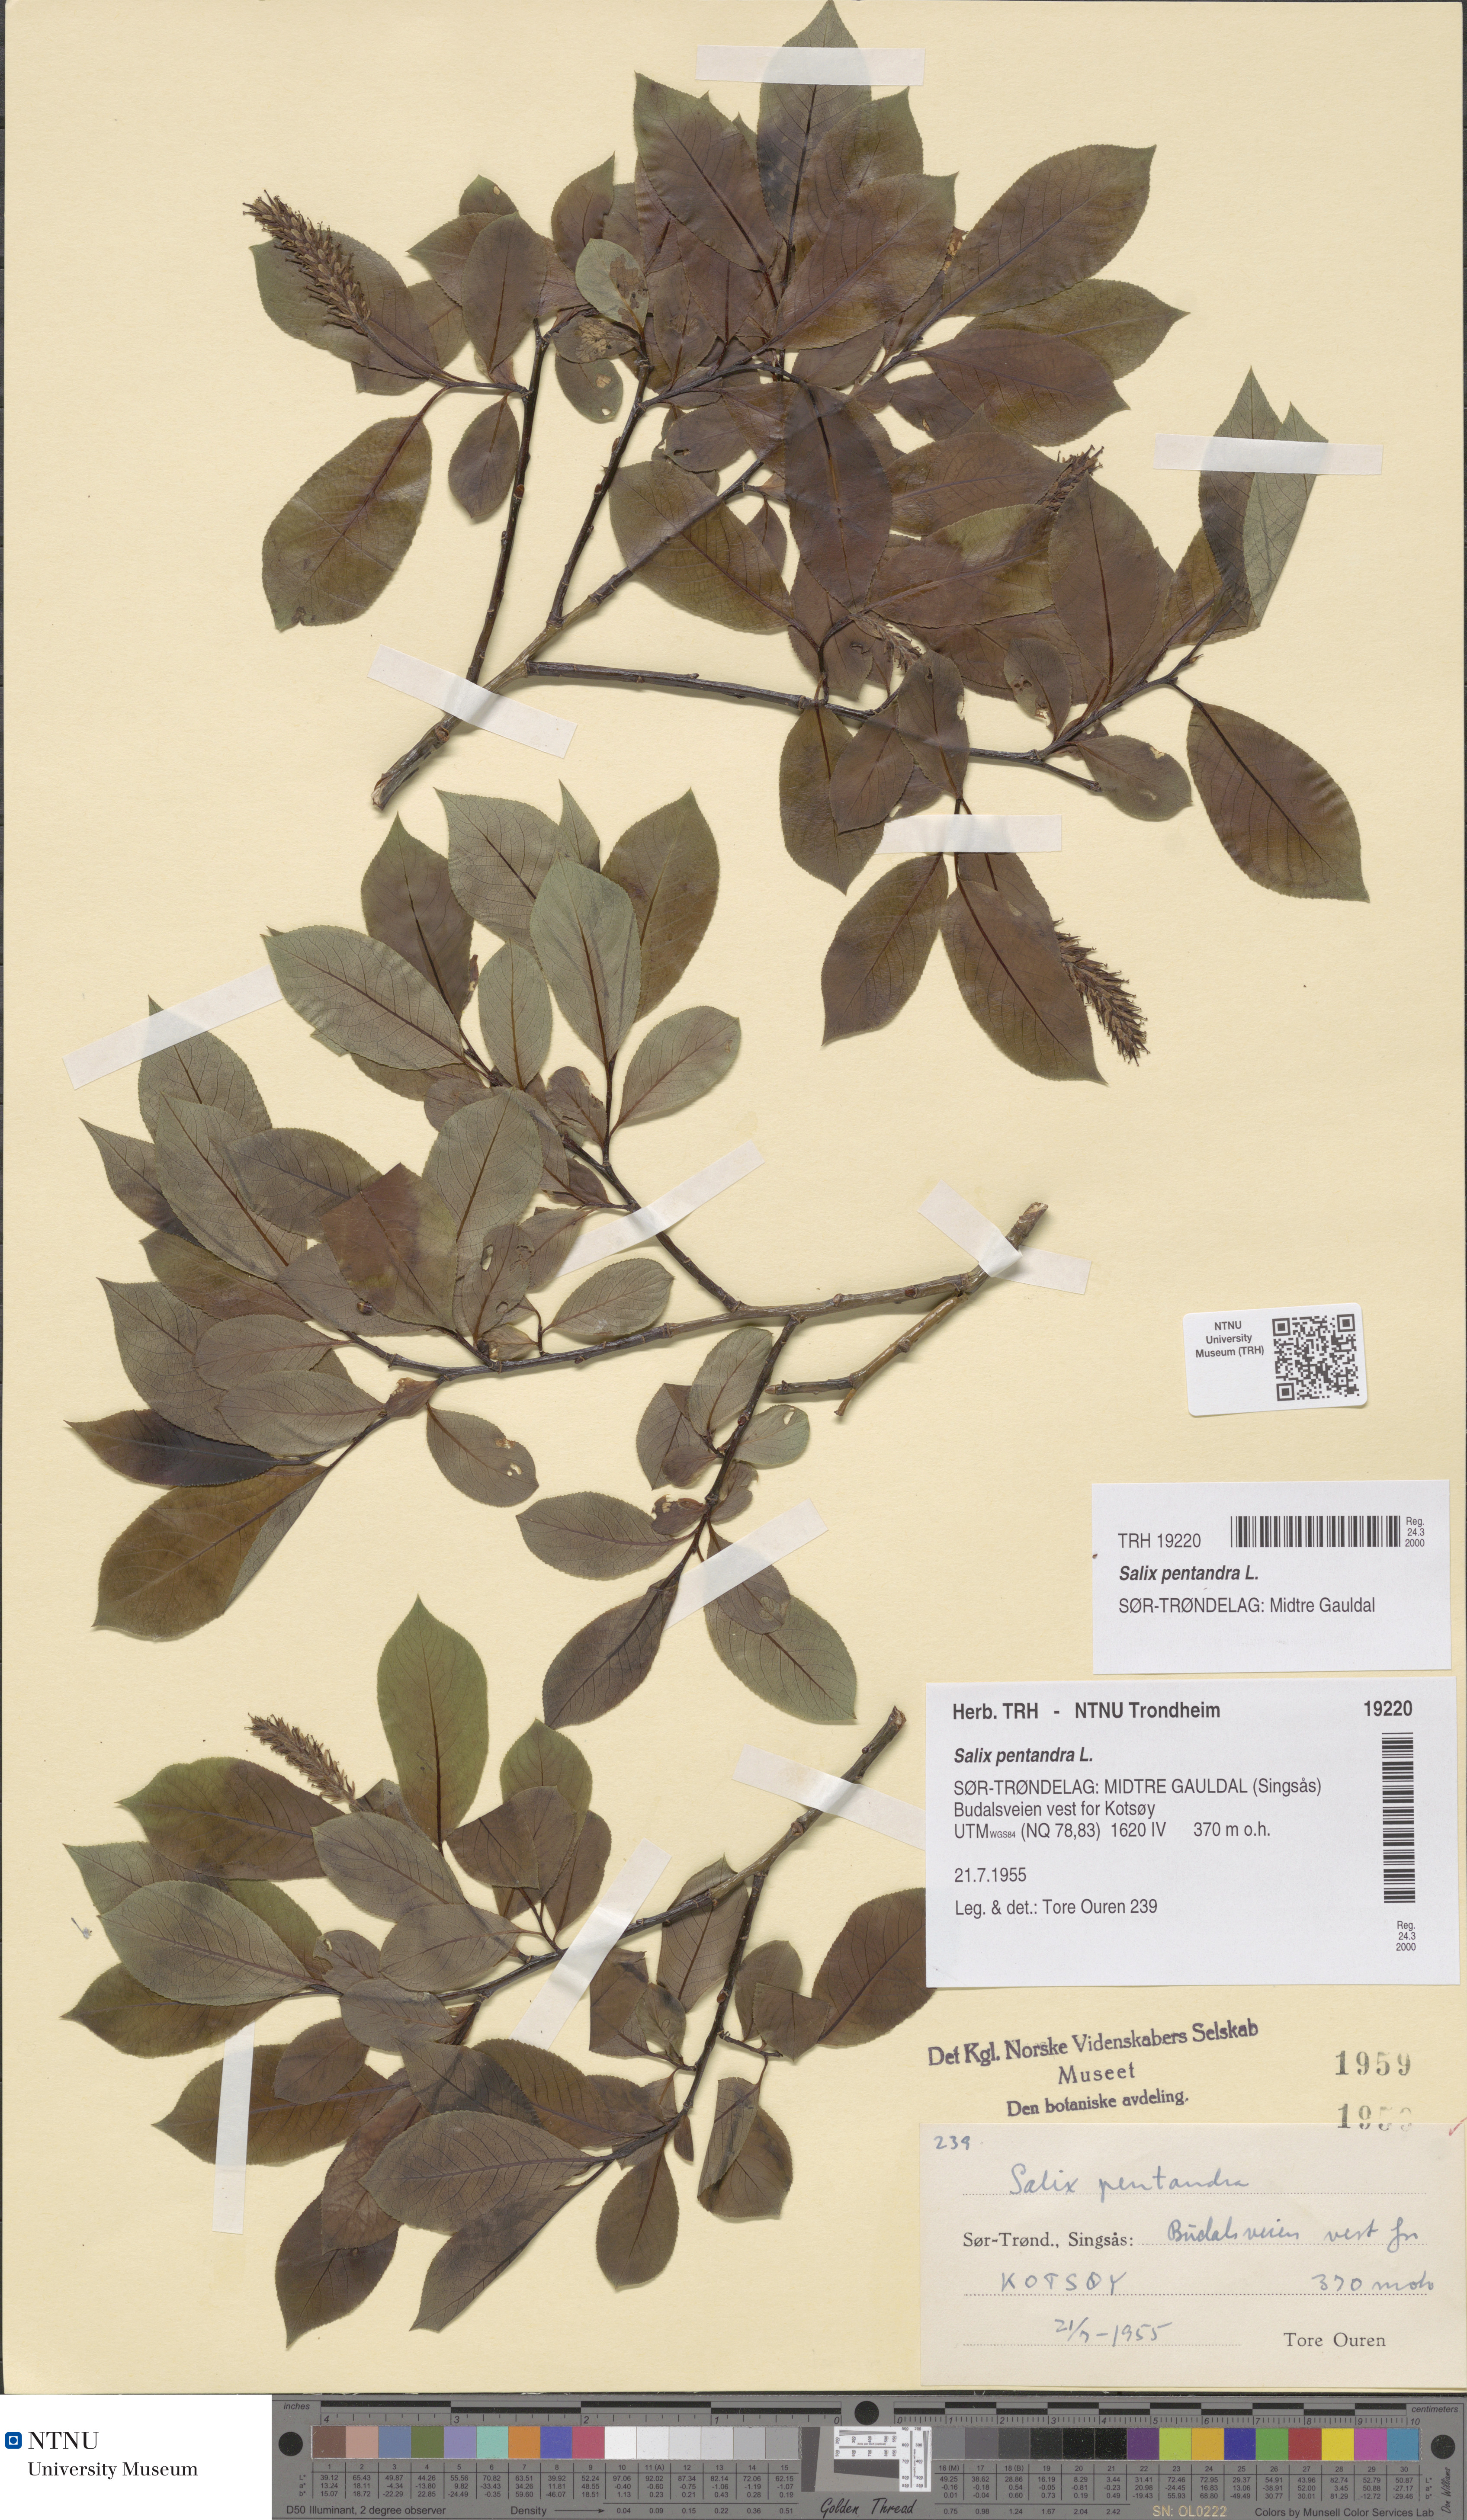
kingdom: Plantae
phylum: Tracheophyta
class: Magnoliopsida
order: Malpighiales
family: Salicaceae
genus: Salix
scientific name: Salix pentandra
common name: Bay willow
